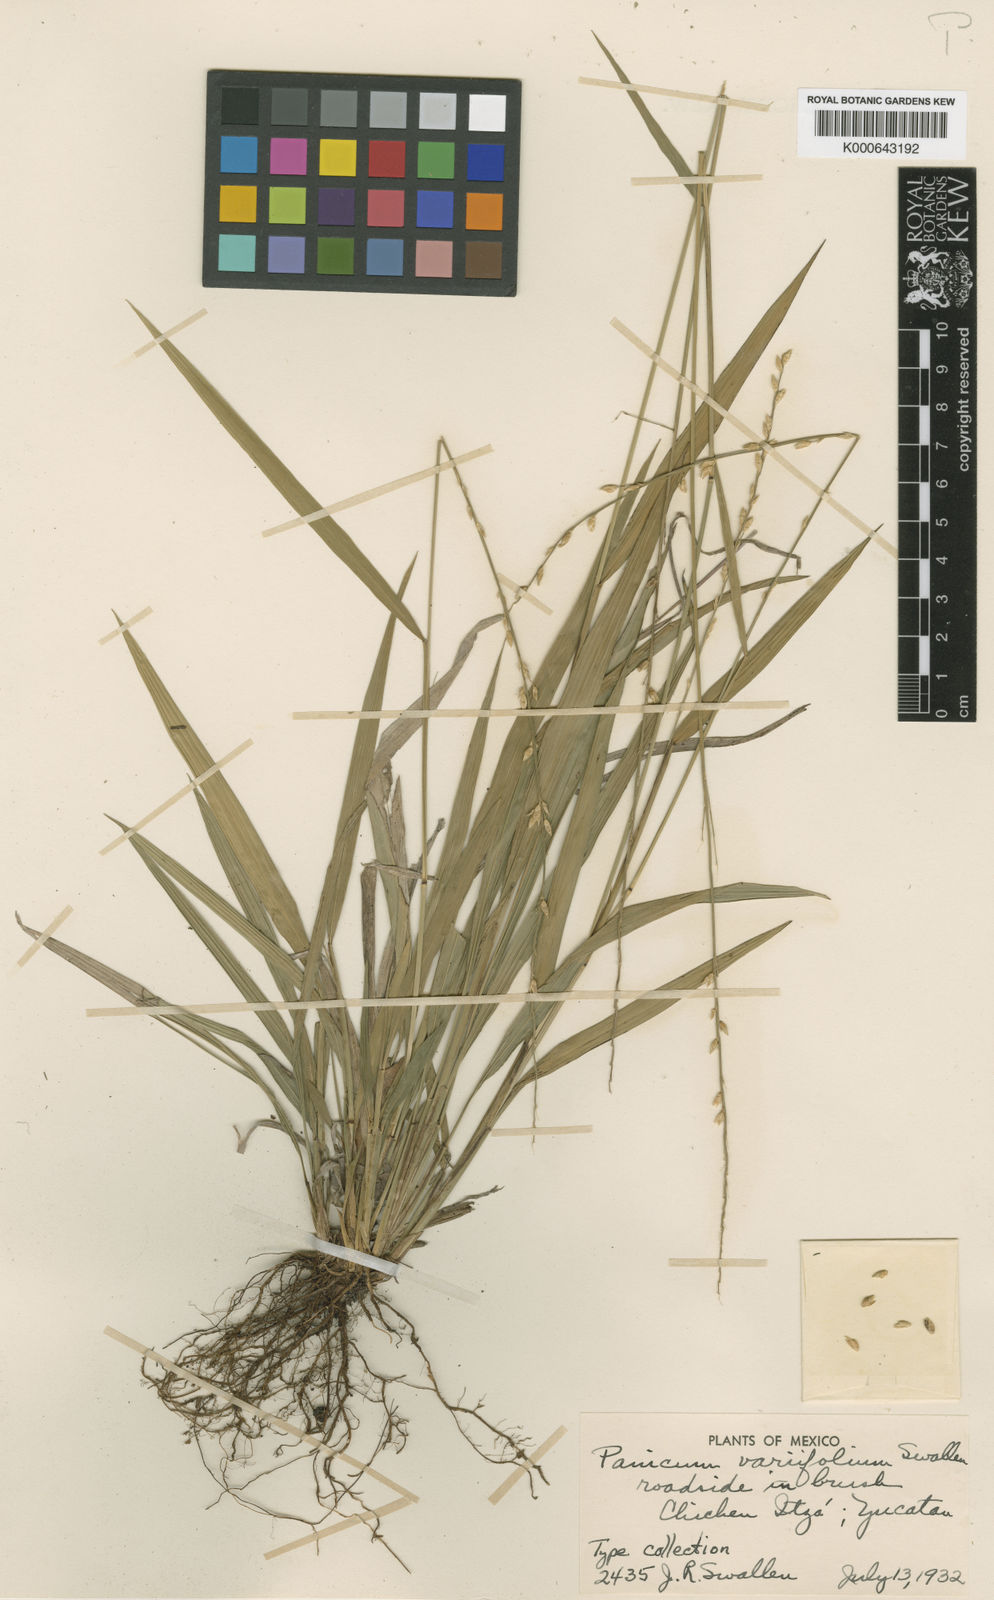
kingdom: Plantae
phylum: Tracheophyta
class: Liliopsida
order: Poales
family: Poaceae
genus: Setaria
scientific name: Setaria
